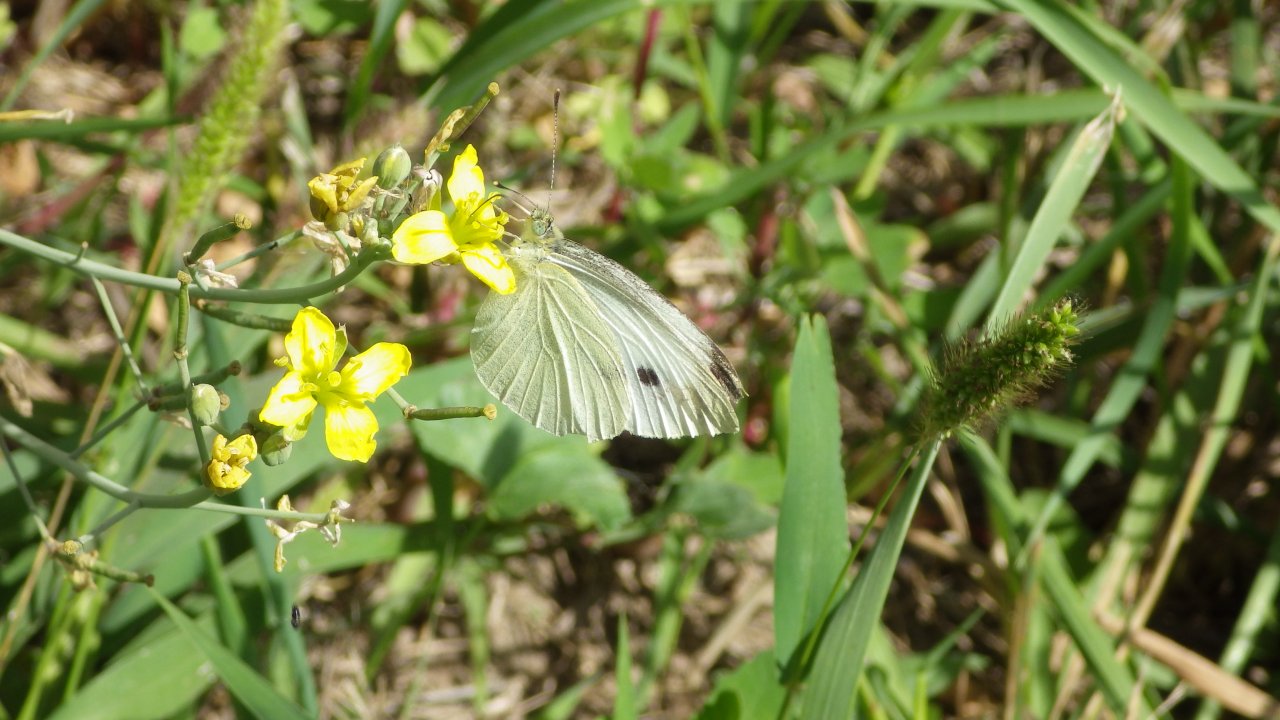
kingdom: Animalia
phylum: Arthropoda
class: Insecta
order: Lepidoptera
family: Pieridae
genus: Pieris
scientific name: Pieris rapae
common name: Cabbage White
